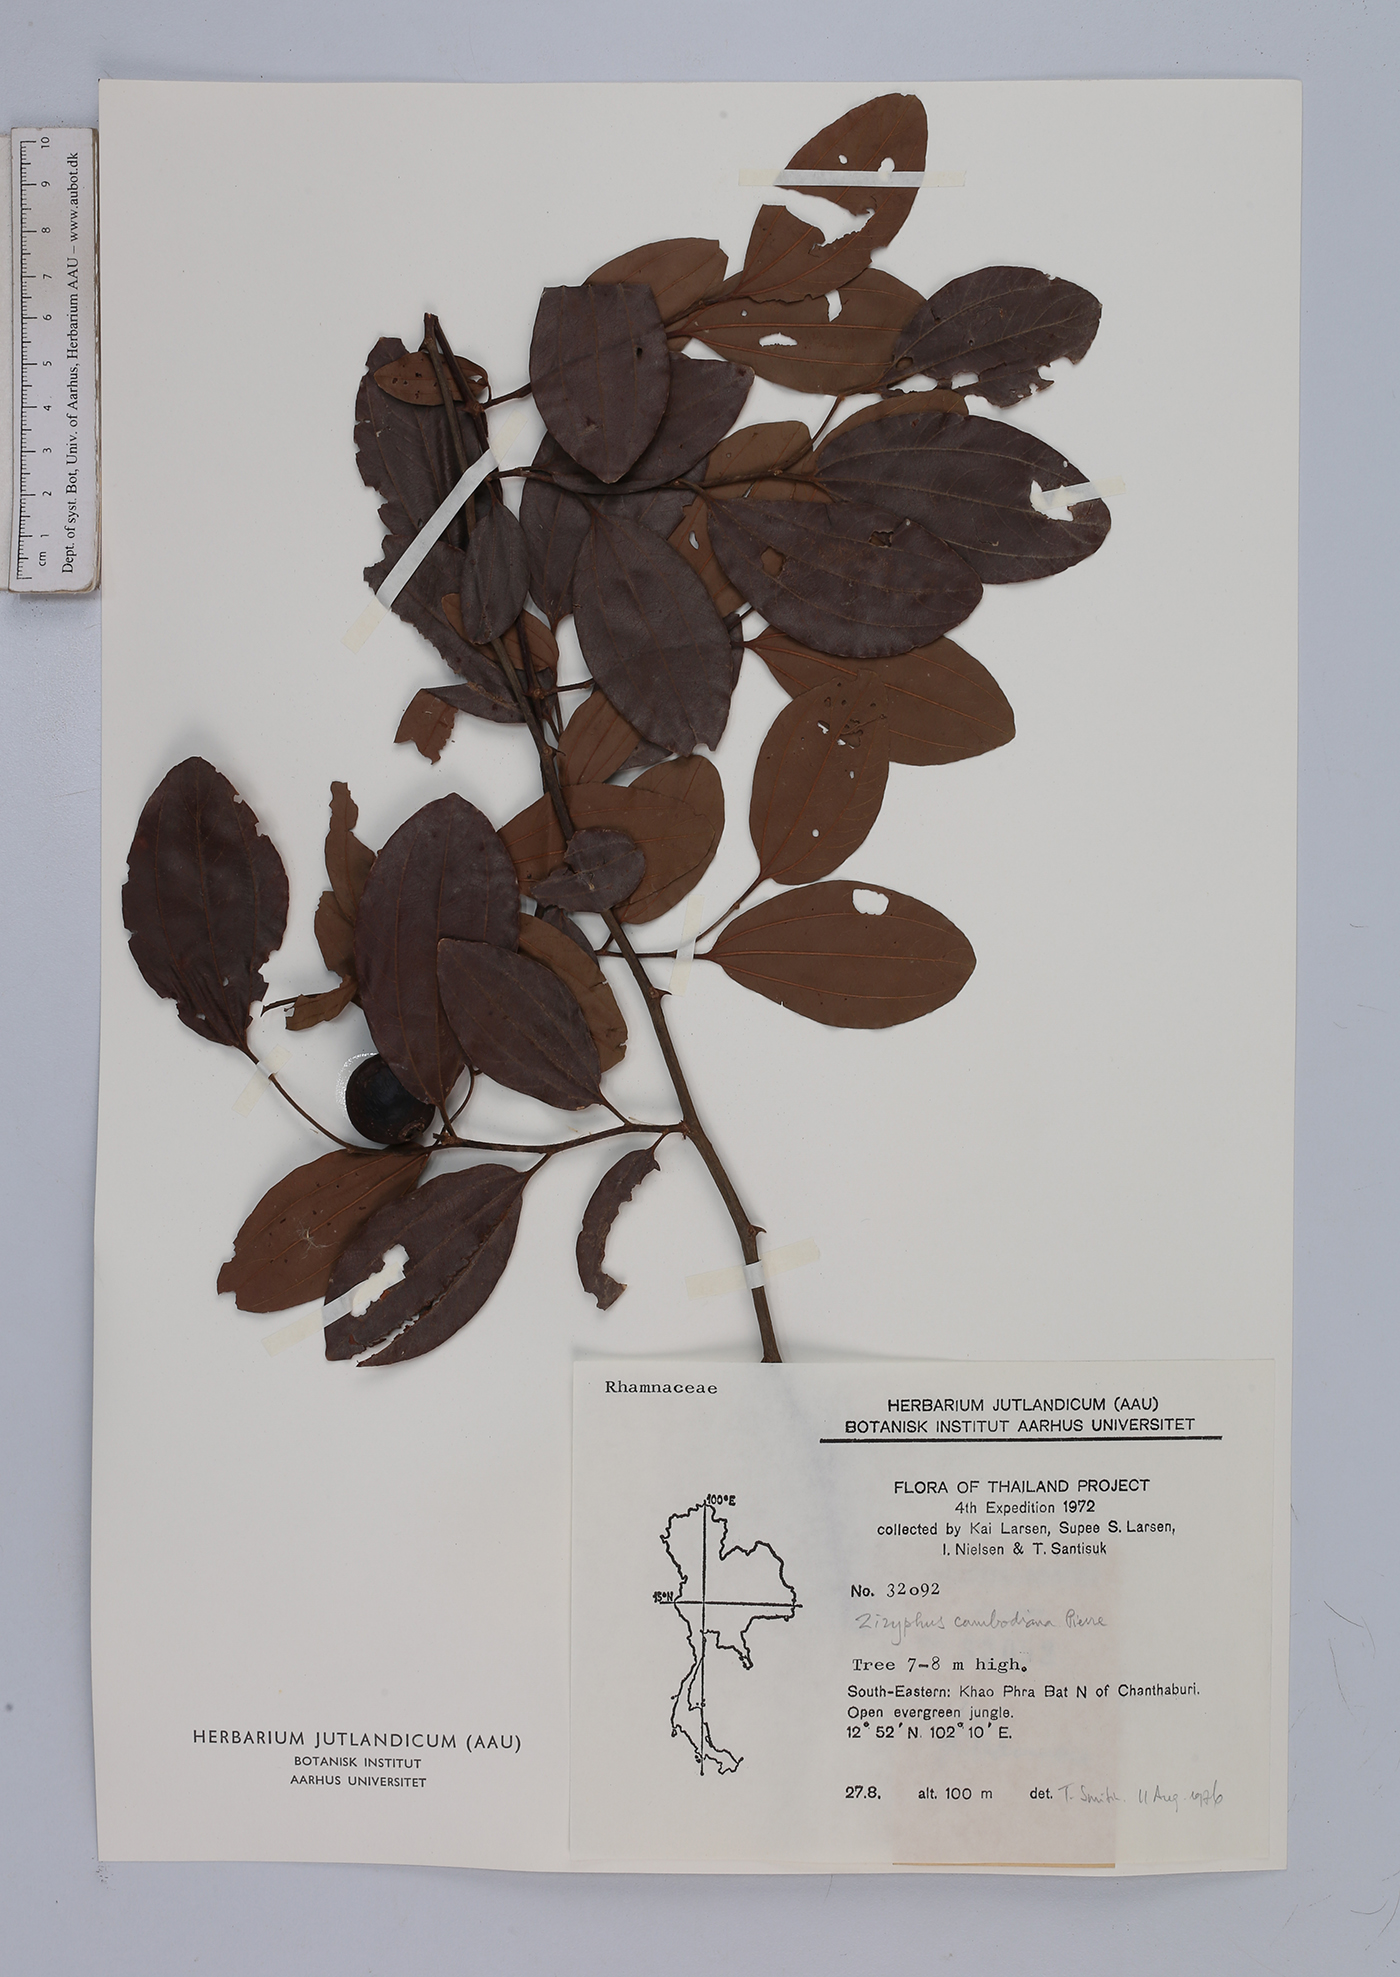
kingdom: Plantae
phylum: Tracheophyta
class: Magnoliopsida
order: Rosales
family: Rhamnaceae
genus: Ziziphus
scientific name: Ziziphus cambodiana
